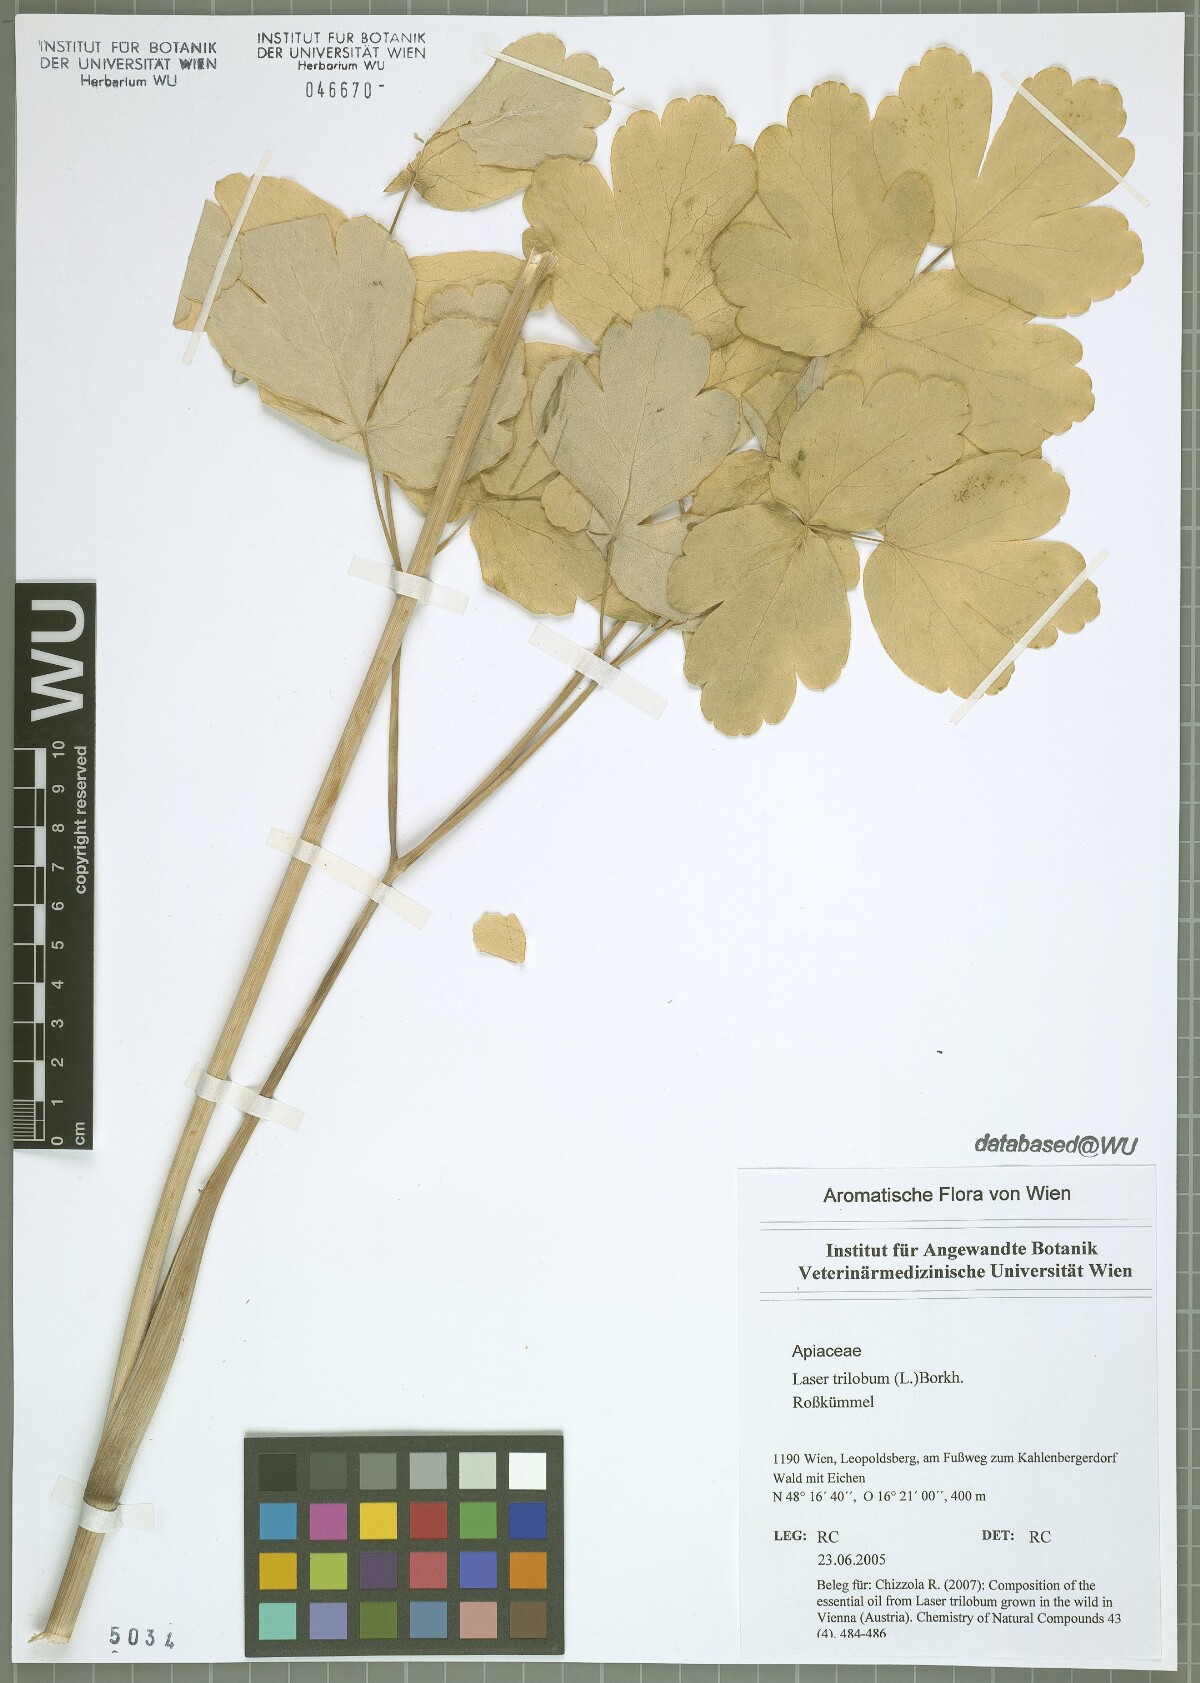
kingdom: Plantae
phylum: Tracheophyta
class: Magnoliopsida
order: Apiales
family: Apiaceae
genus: Laser
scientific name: Laser trilobum
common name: Laser
